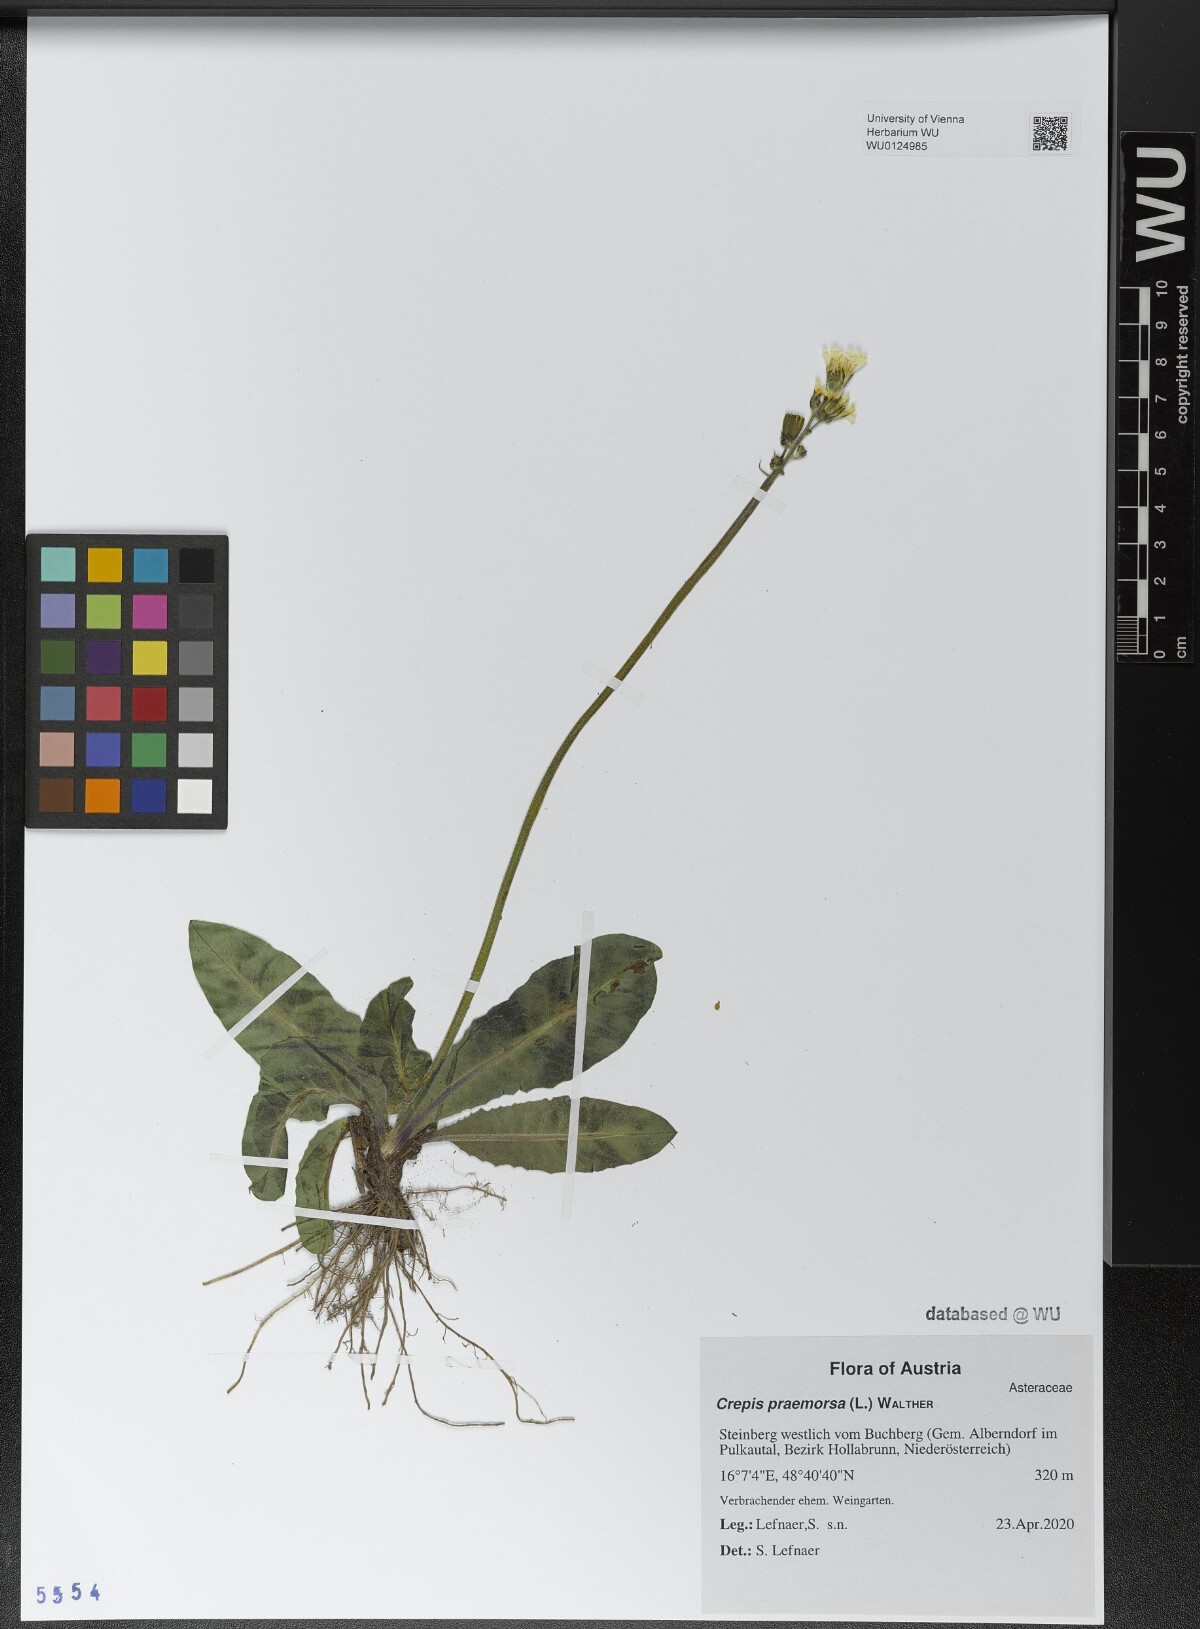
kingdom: Plantae
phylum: Tracheophyta
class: Magnoliopsida
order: Asterales
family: Asteraceae
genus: Crepis
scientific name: Crepis praemorsa
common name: Leafless hawk's-beard
